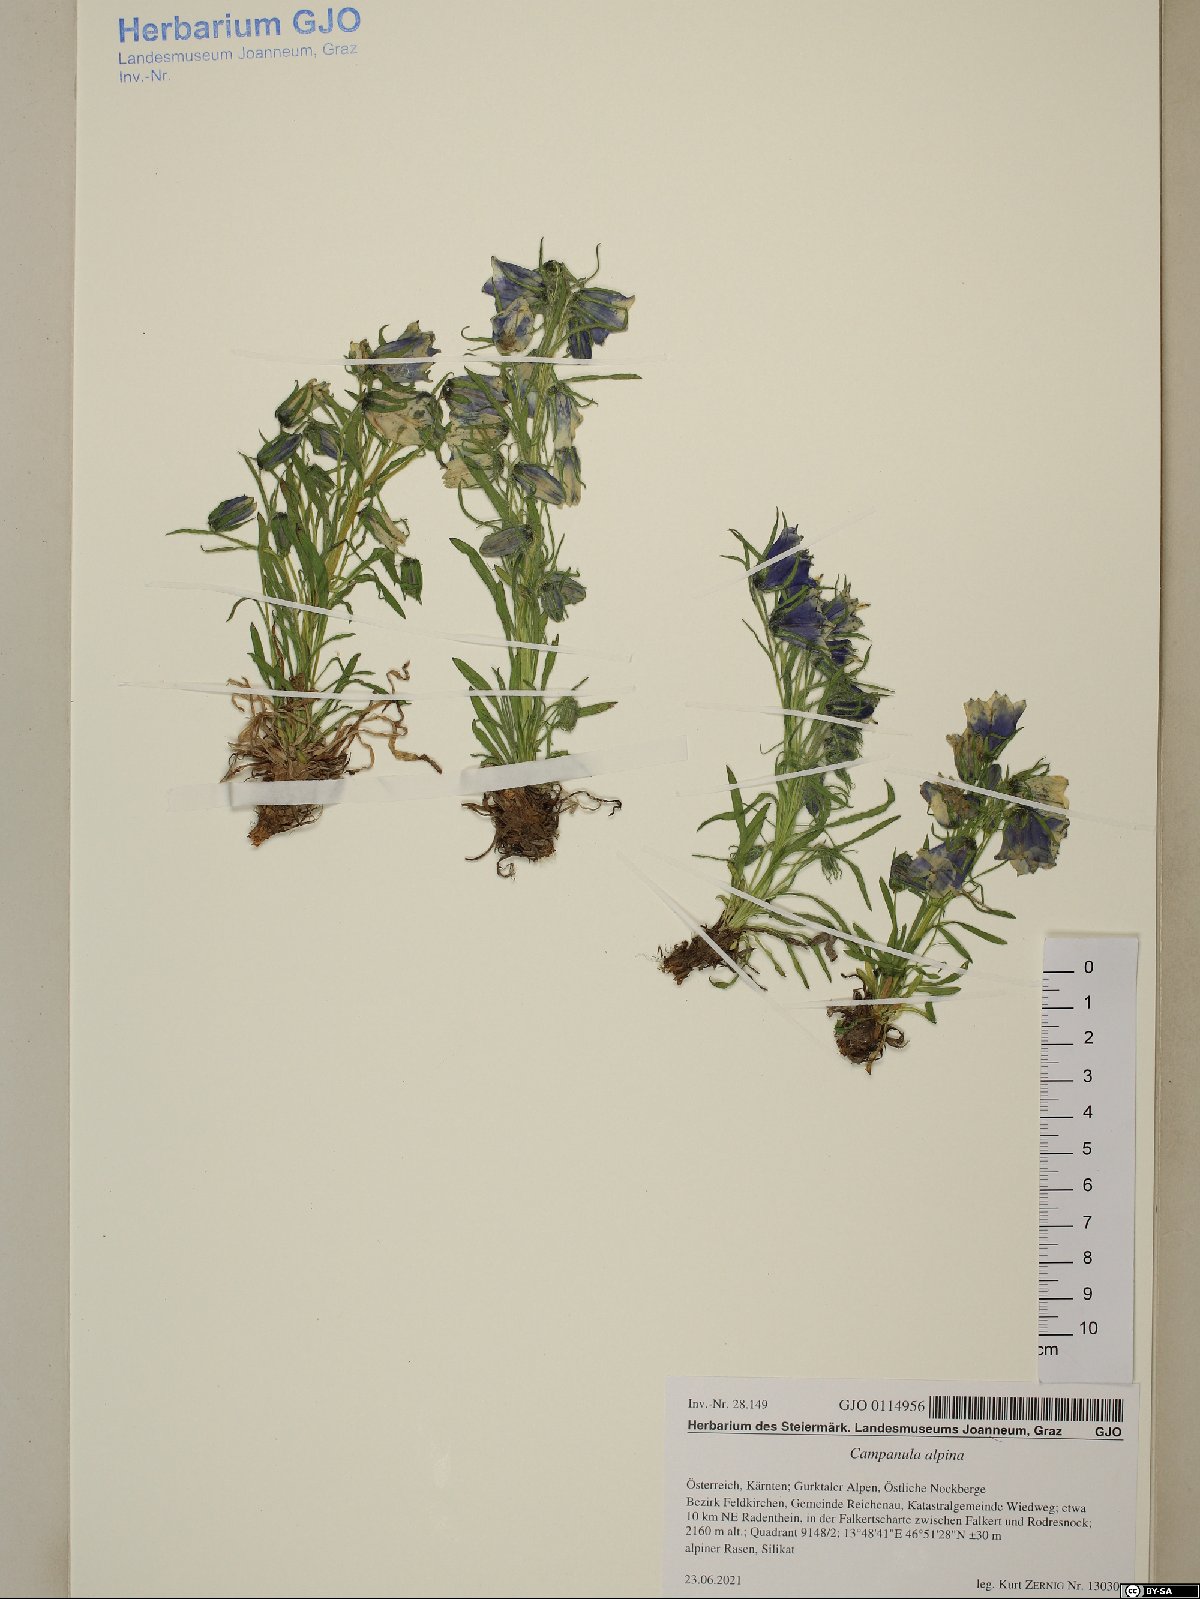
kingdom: Plantae
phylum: Tracheophyta
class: Magnoliopsida
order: Asterales
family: Campanulaceae
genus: Campanula
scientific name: Campanula alpina
